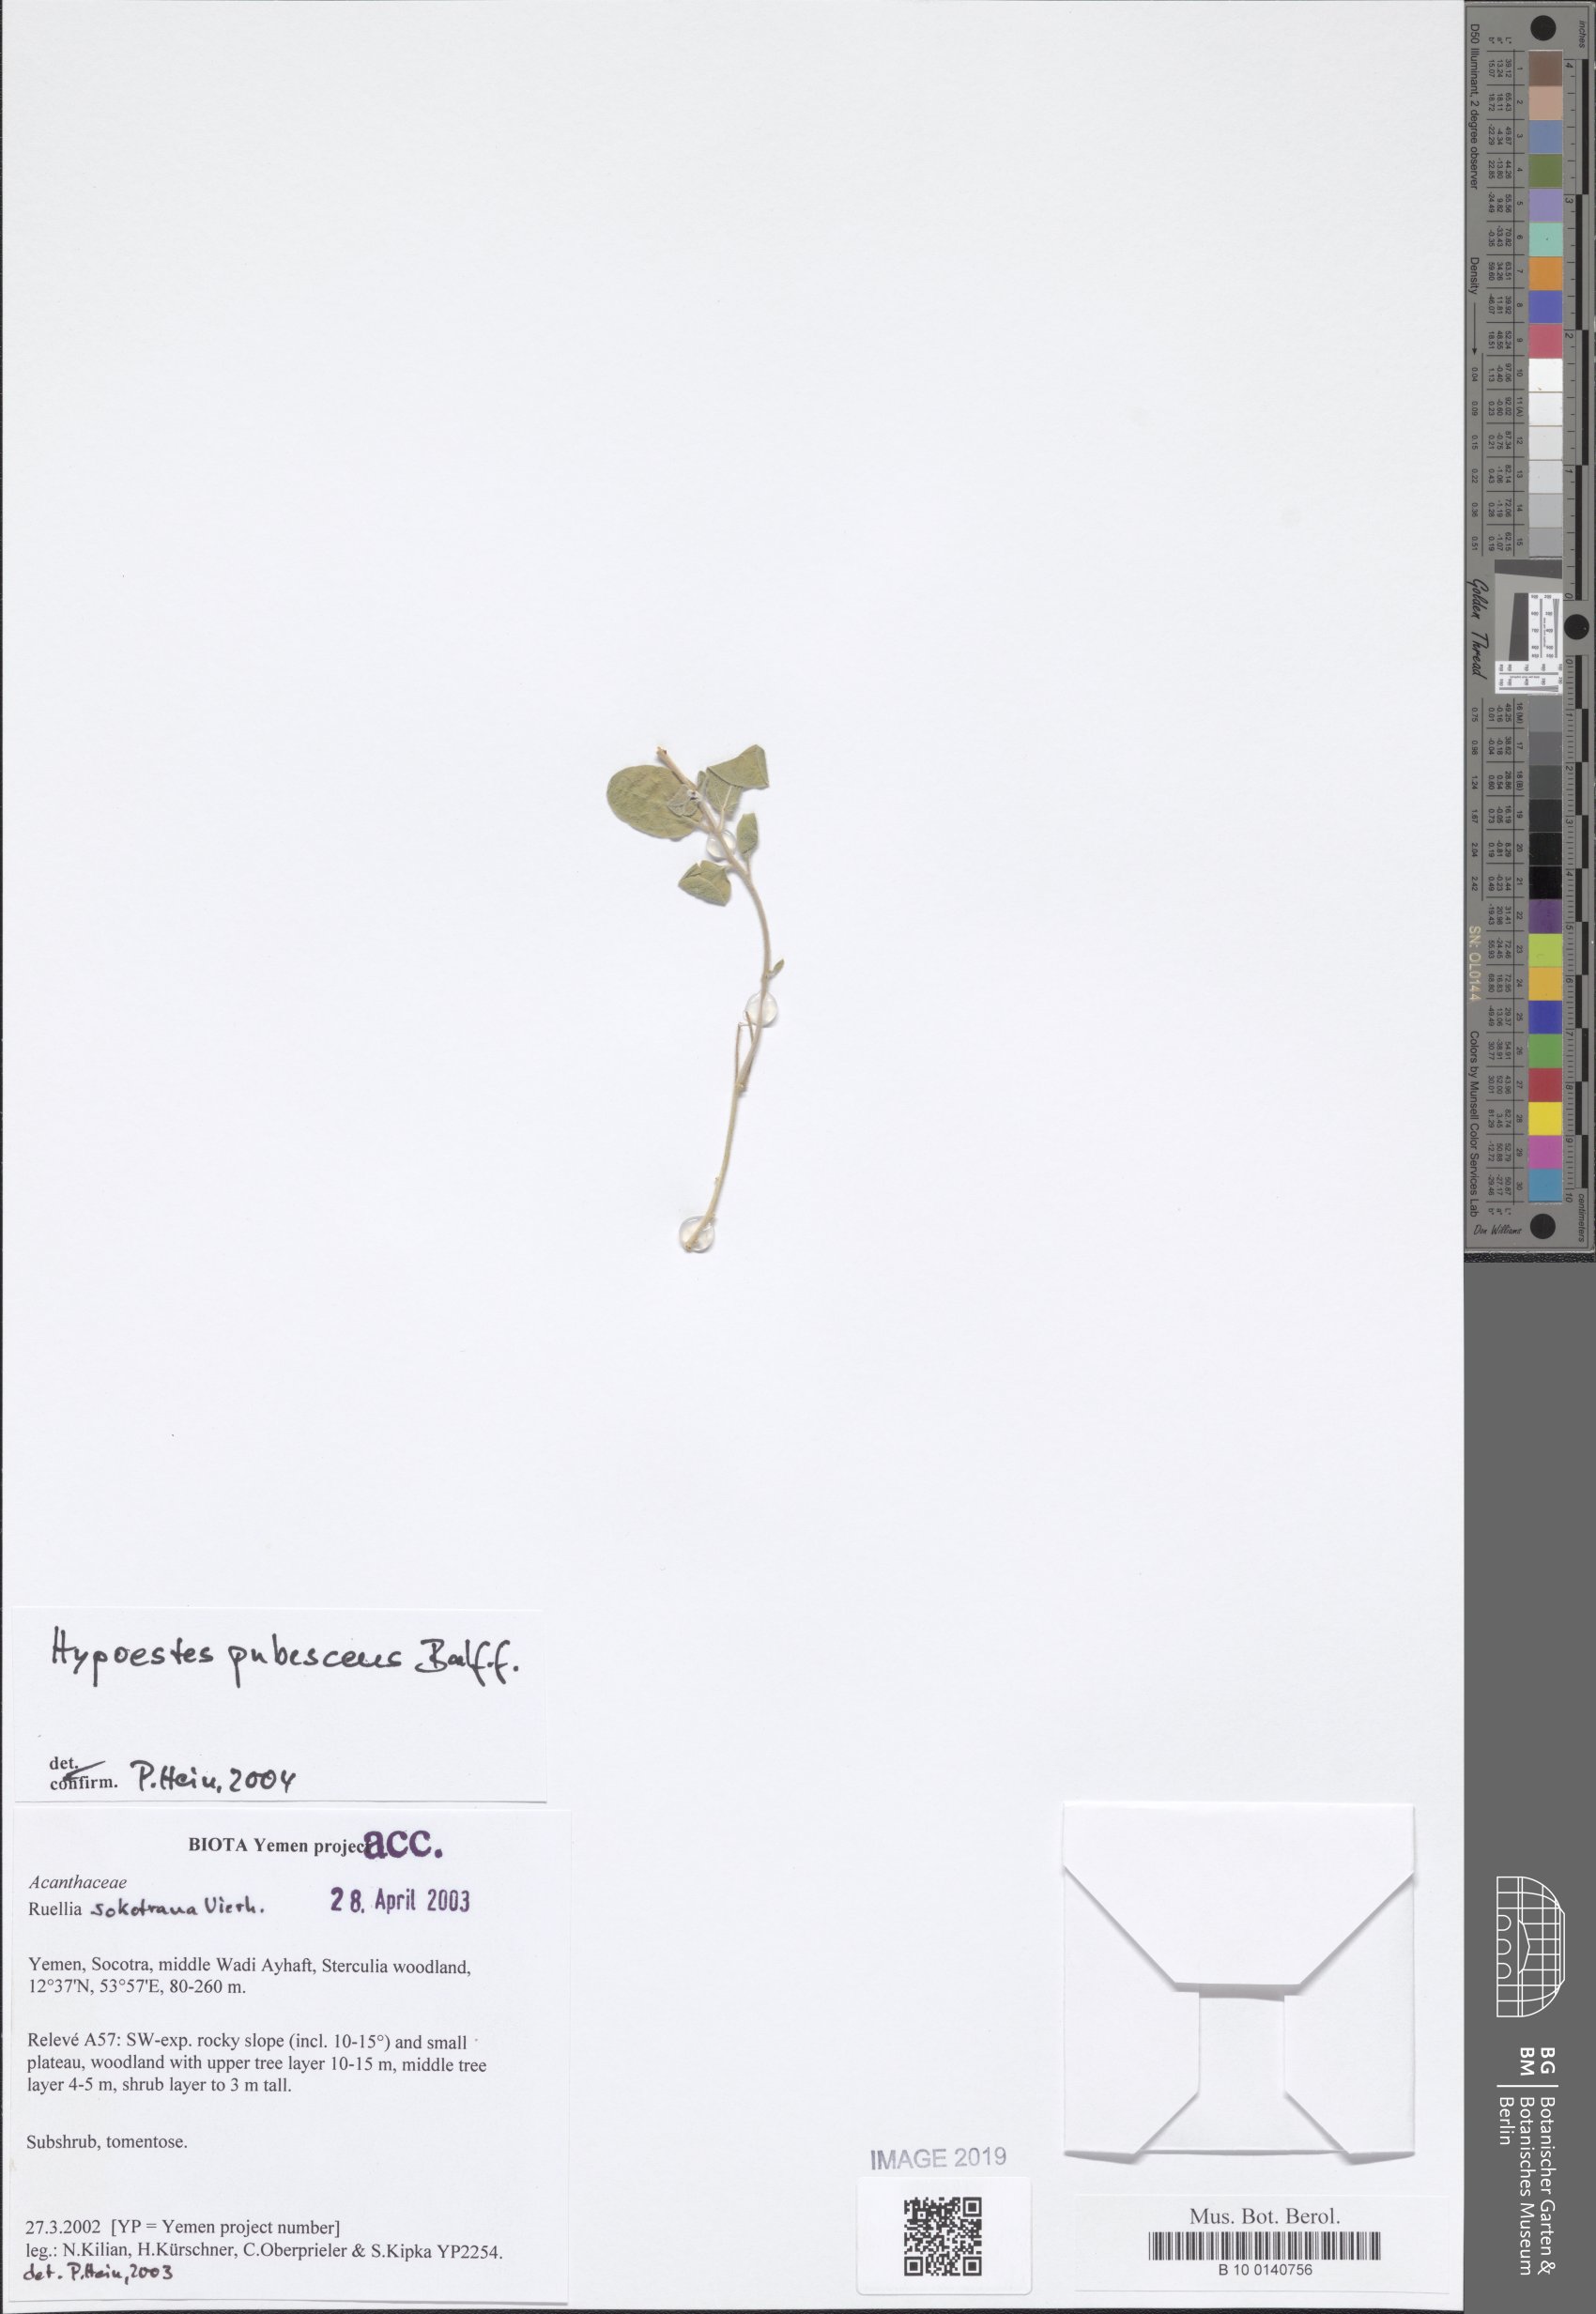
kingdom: Plantae
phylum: Tracheophyta
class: Magnoliopsida
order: Lamiales
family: Acanthaceae
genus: Hypoestes
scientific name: Hypoestes pubescens
